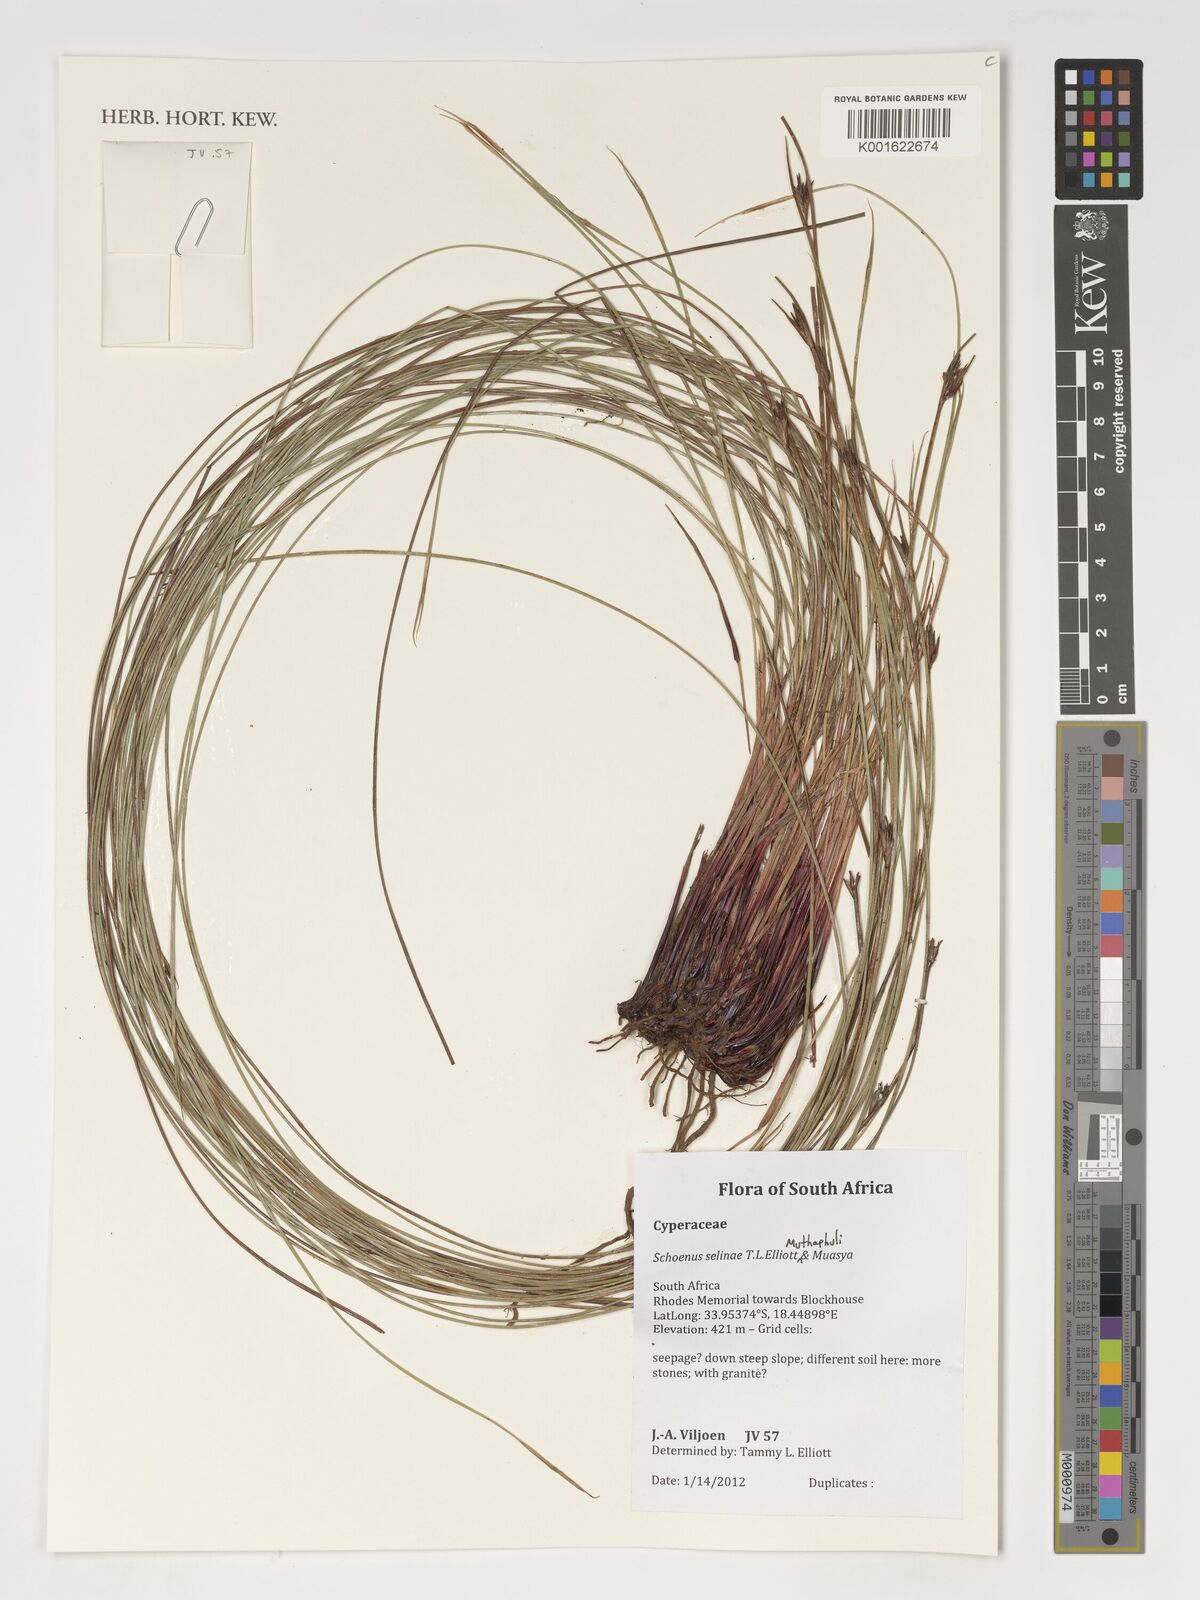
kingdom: Plantae
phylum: Tracheophyta
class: Liliopsida
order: Poales
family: Cyperaceae
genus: Schoenus
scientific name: Schoenus
